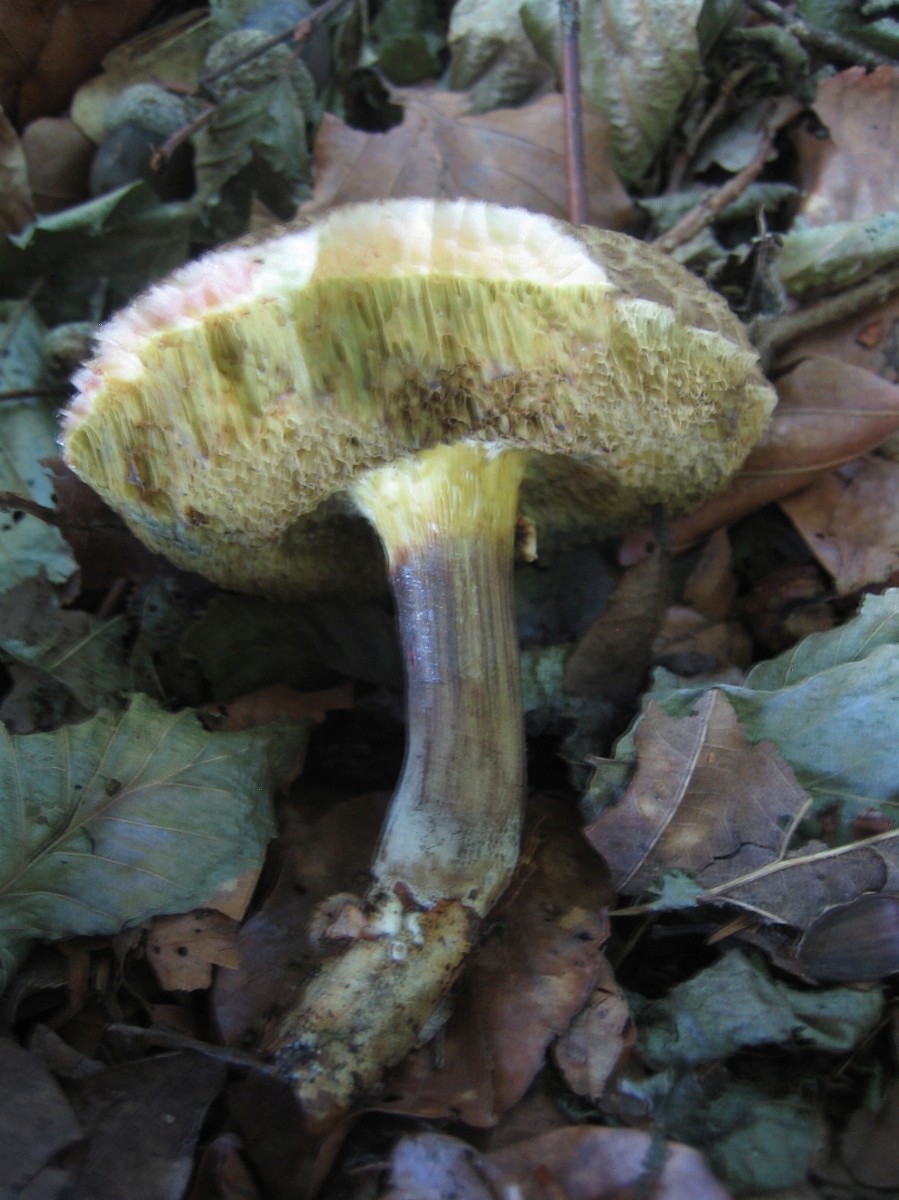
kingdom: Fungi
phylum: Basidiomycota
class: Agaricomycetes
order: Boletales
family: Boletaceae
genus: Xerocomellus
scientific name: Xerocomellus porosporus
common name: hvidsprukken rørhat
